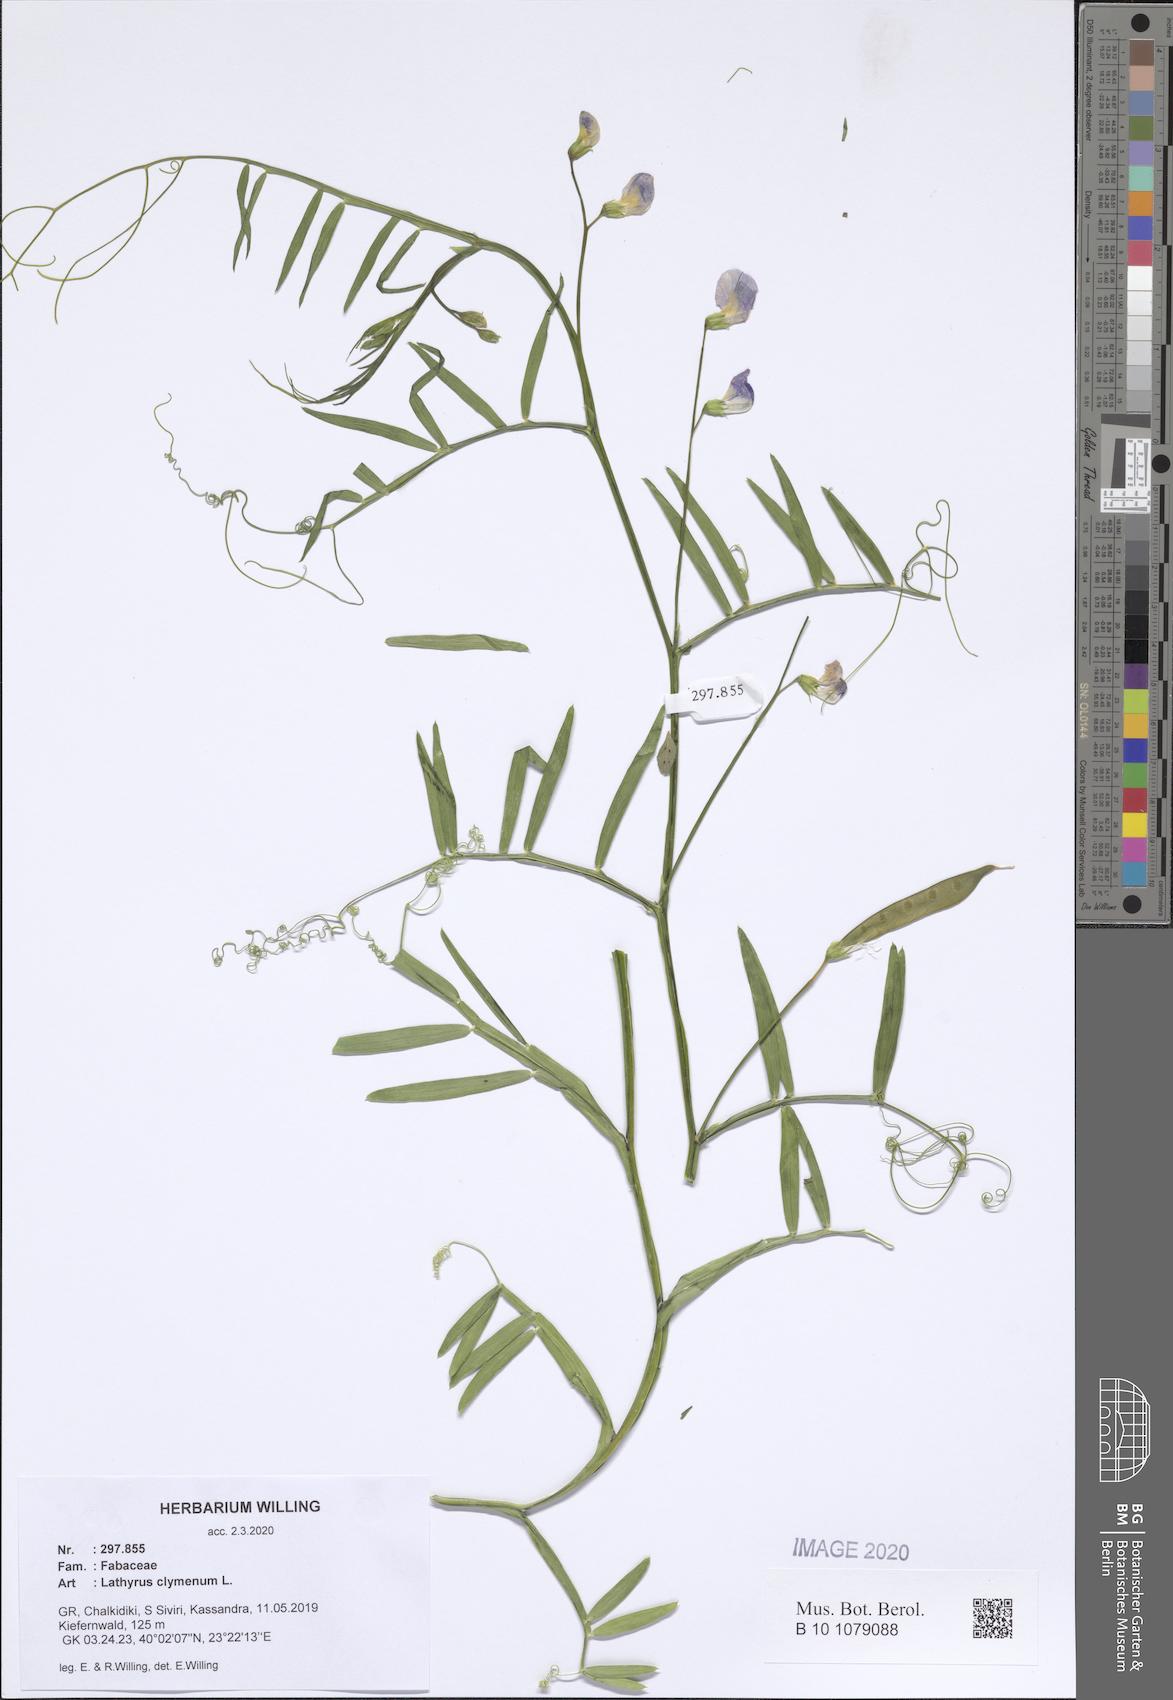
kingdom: Plantae
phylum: Tracheophyta
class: Magnoliopsida
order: Fabales
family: Fabaceae
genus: Lathyrus
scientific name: Lathyrus clymenum
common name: Spanish vetchling
